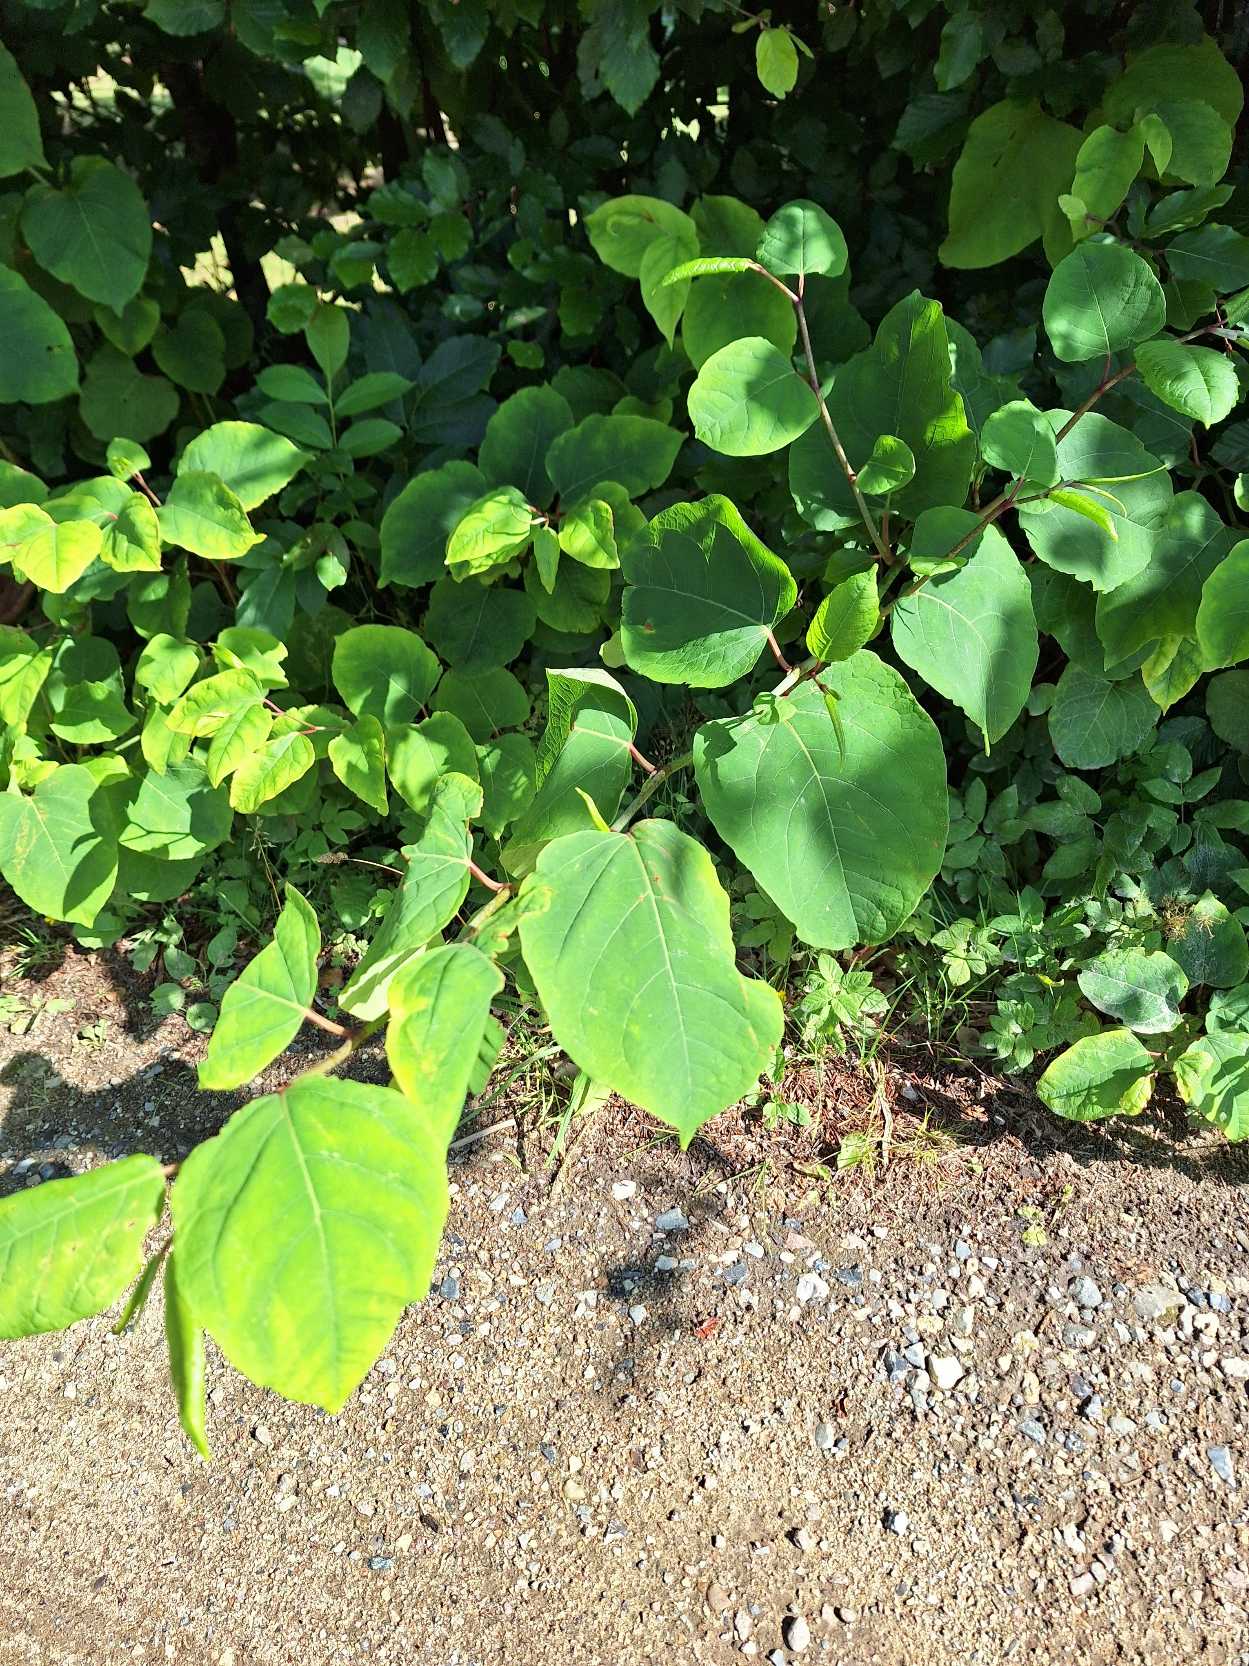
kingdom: Plantae
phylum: Tracheophyta
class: Magnoliopsida
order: Caryophyllales
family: Polygonaceae
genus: Reynoutria
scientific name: Reynoutria japonica
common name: Japan-pileurt
